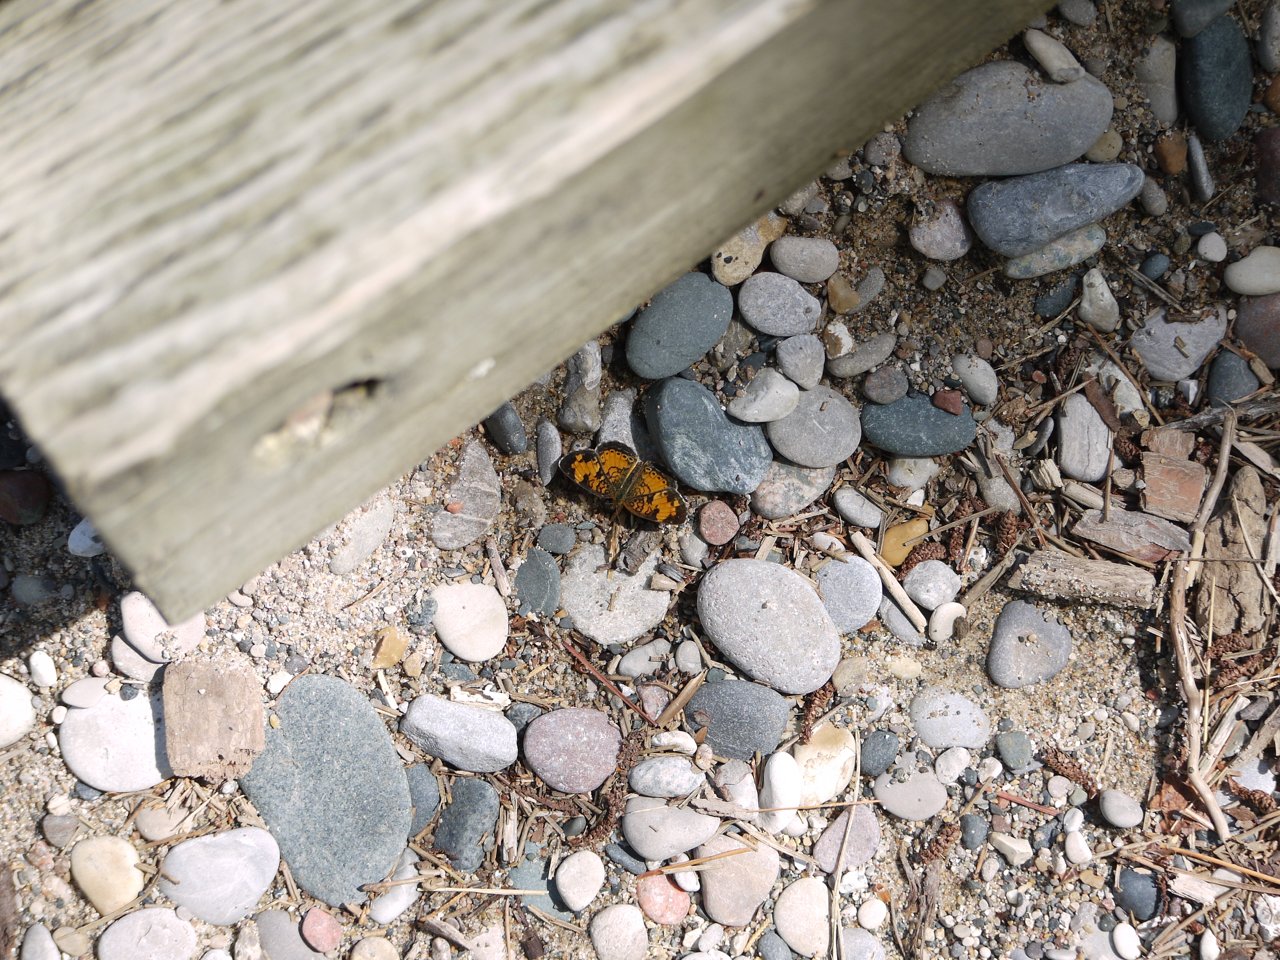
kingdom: Animalia
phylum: Arthropoda
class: Insecta
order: Lepidoptera
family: Nymphalidae
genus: Phyciodes
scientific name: Phyciodes tharos
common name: Northern Crescent
